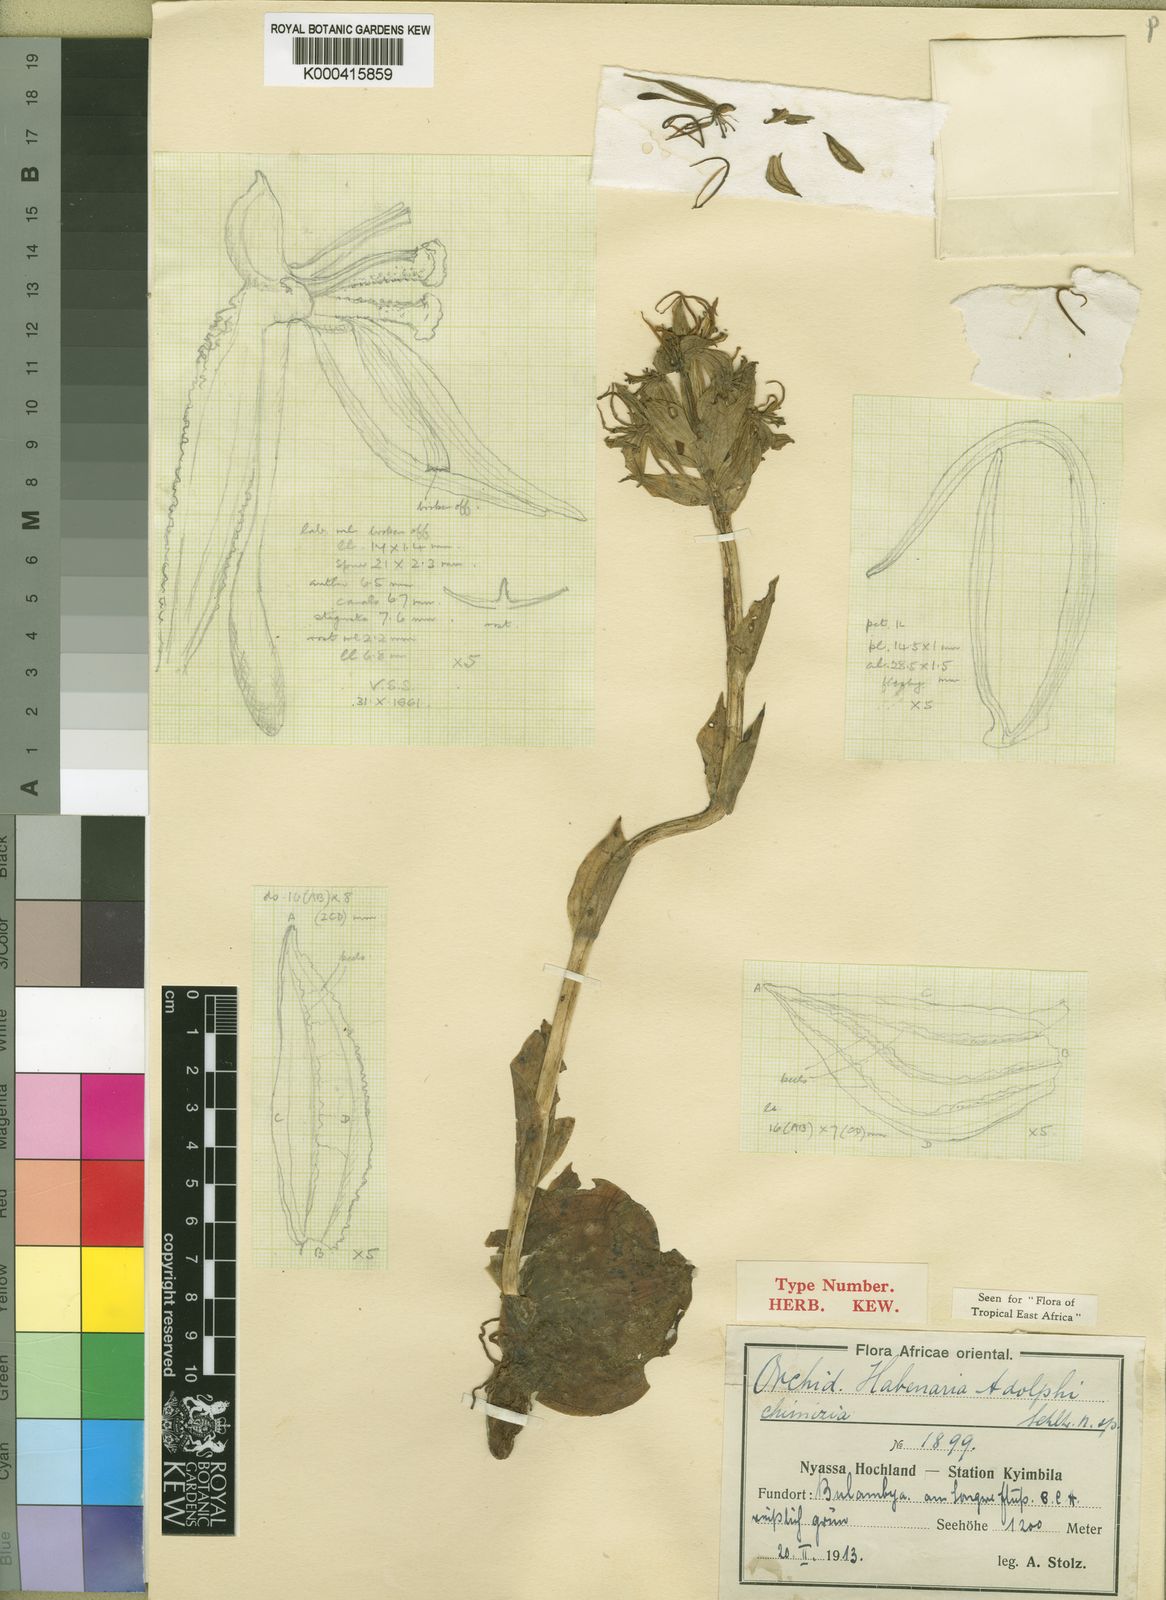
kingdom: Plantae
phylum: Tracheophyta
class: Liliopsida
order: Asparagales
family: Orchidaceae
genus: Habenaria
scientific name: Habenaria adolphi
